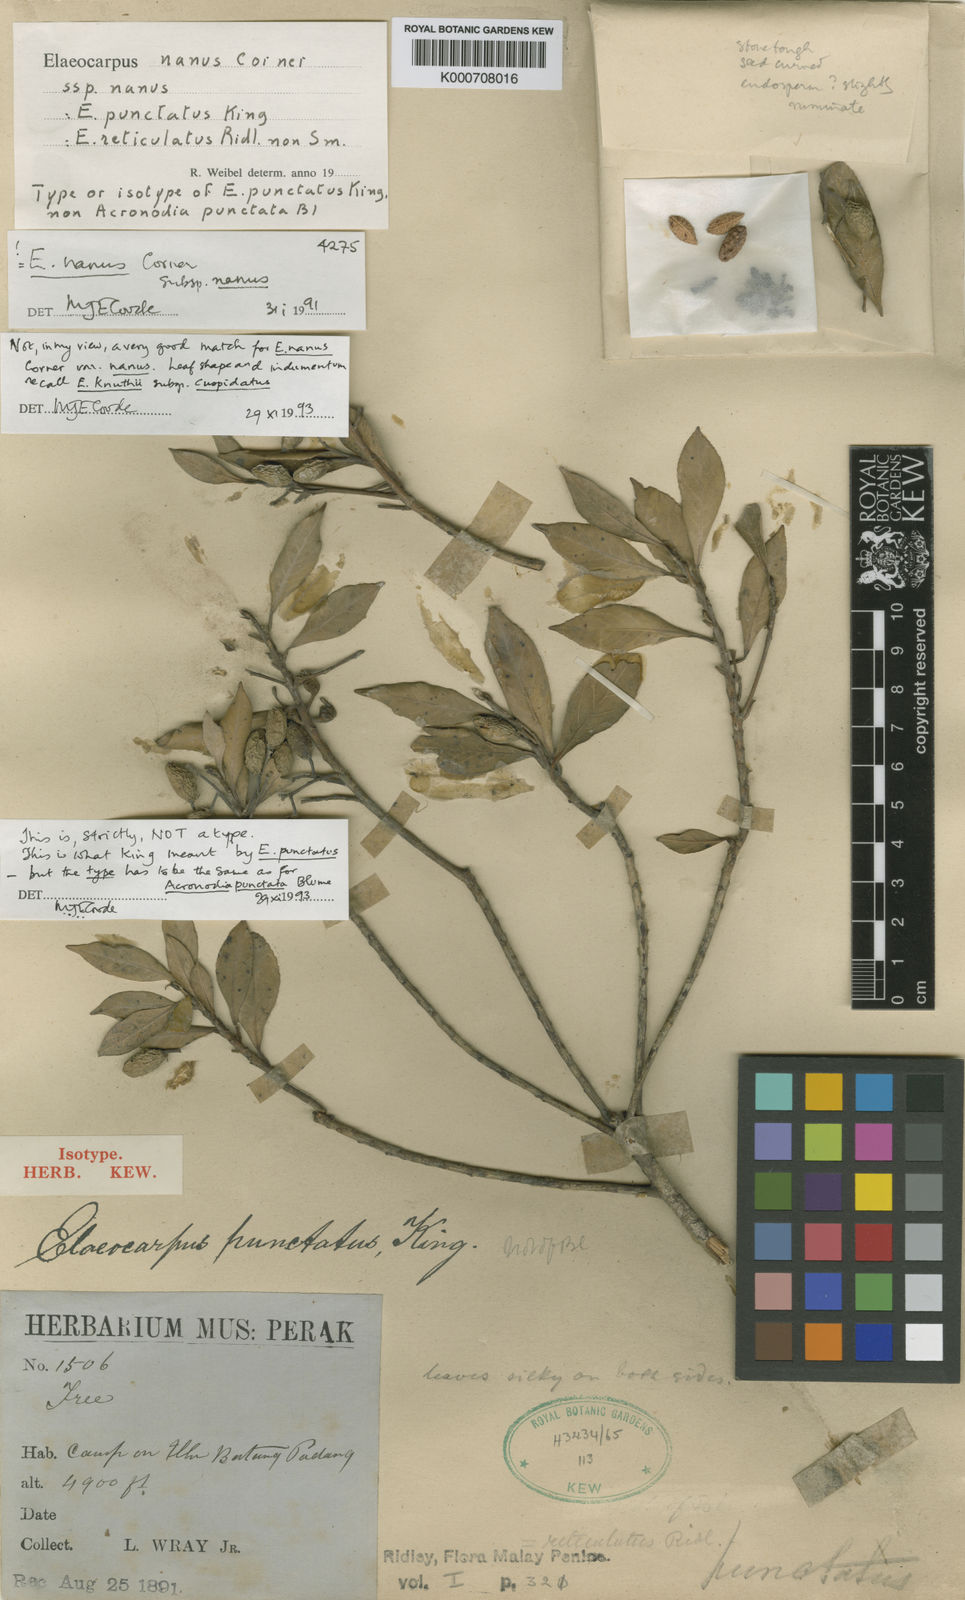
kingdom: Plantae
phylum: Tracheophyta
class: Magnoliopsida
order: Oxalidales
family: Elaeocarpaceae
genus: Elaeocarpus
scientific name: Elaeocarpus nanus
